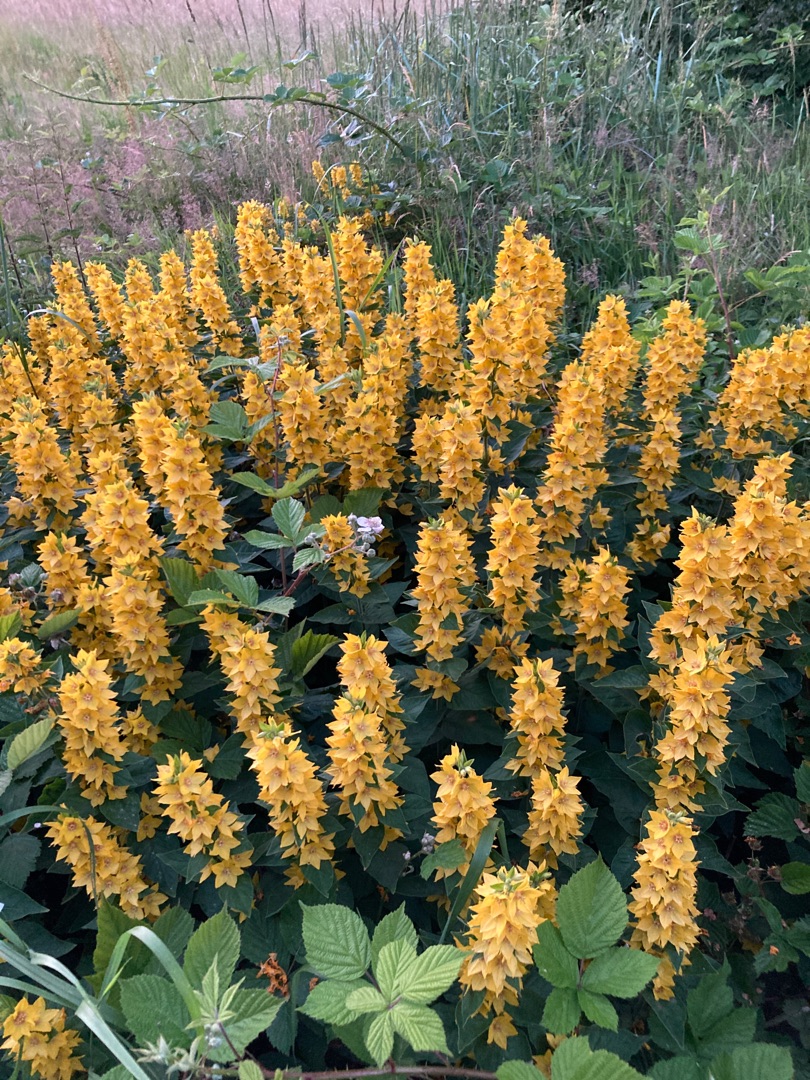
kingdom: Plantae
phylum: Tracheophyta
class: Magnoliopsida
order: Ericales
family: Primulaceae
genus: Lysimachia
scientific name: Lysimachia punctata
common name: Prikbladet fredløs
